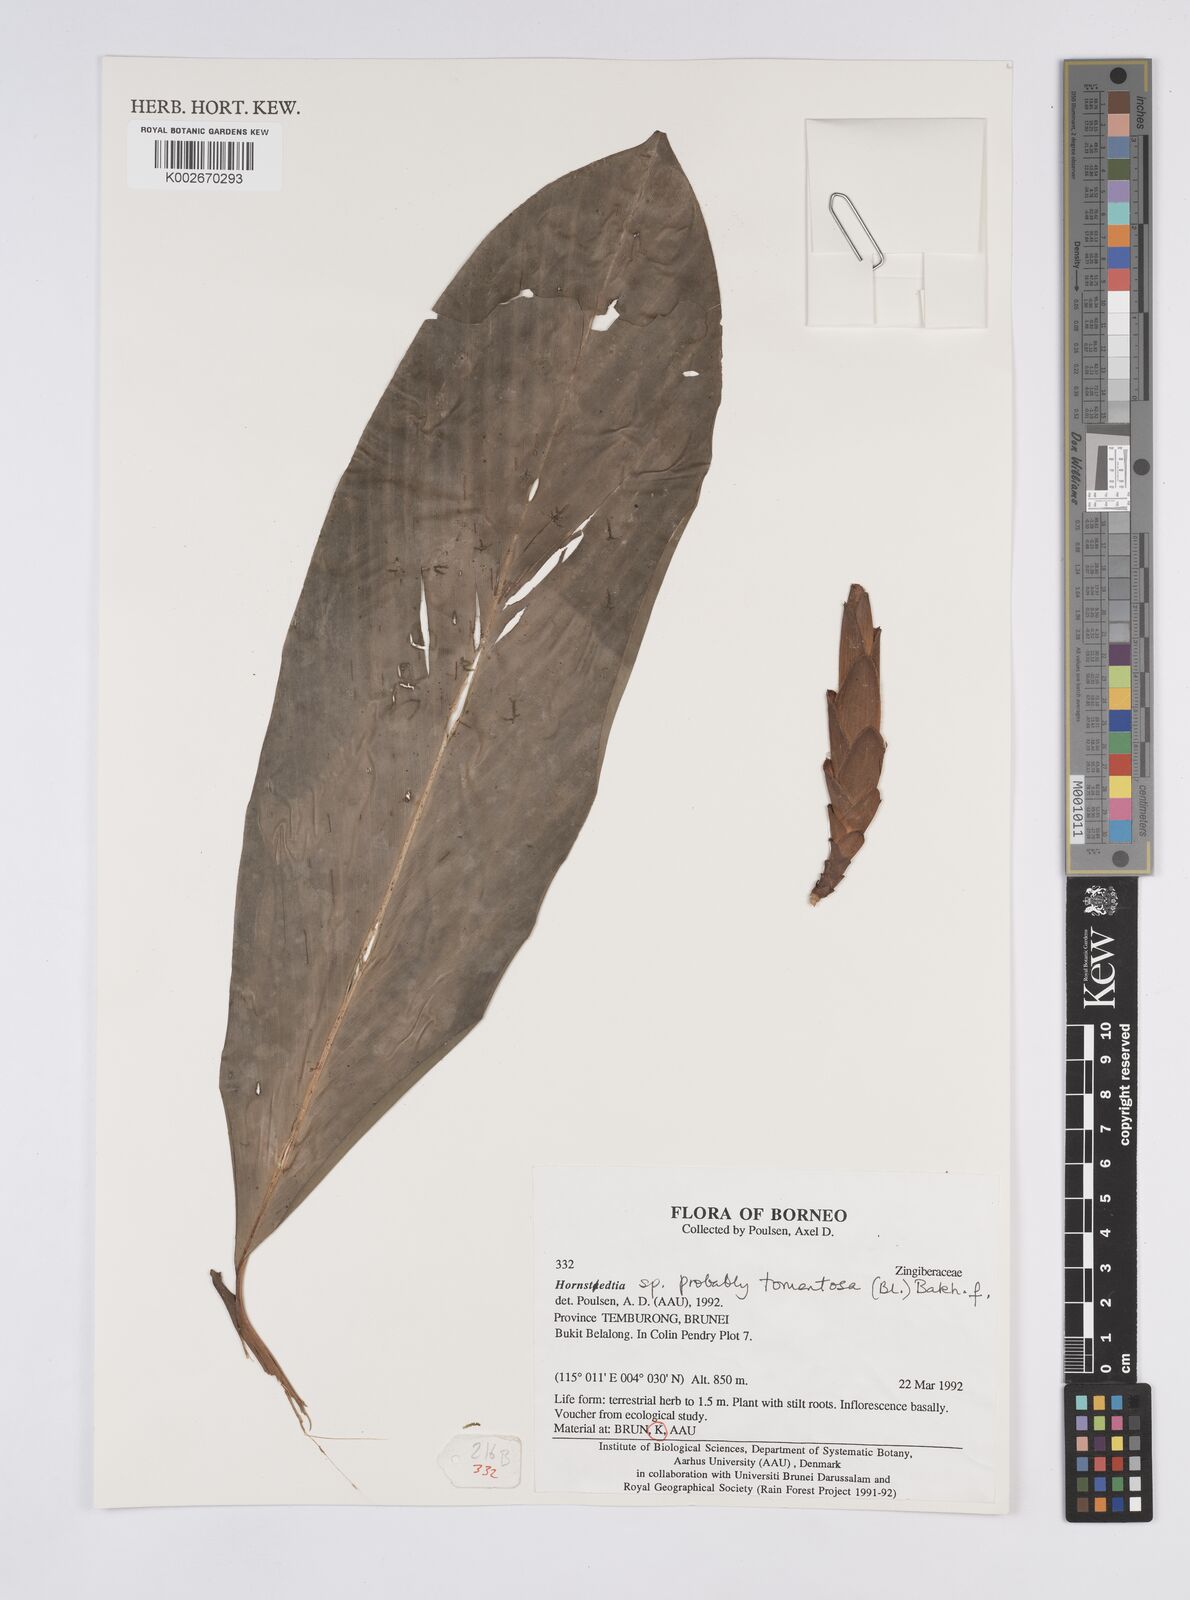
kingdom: Plantae
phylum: Tracheophyta
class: Liliopsida
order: Zingiberales
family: Zingiberaceae
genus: Hornstedtia
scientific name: Hornstedtia tomentosa
